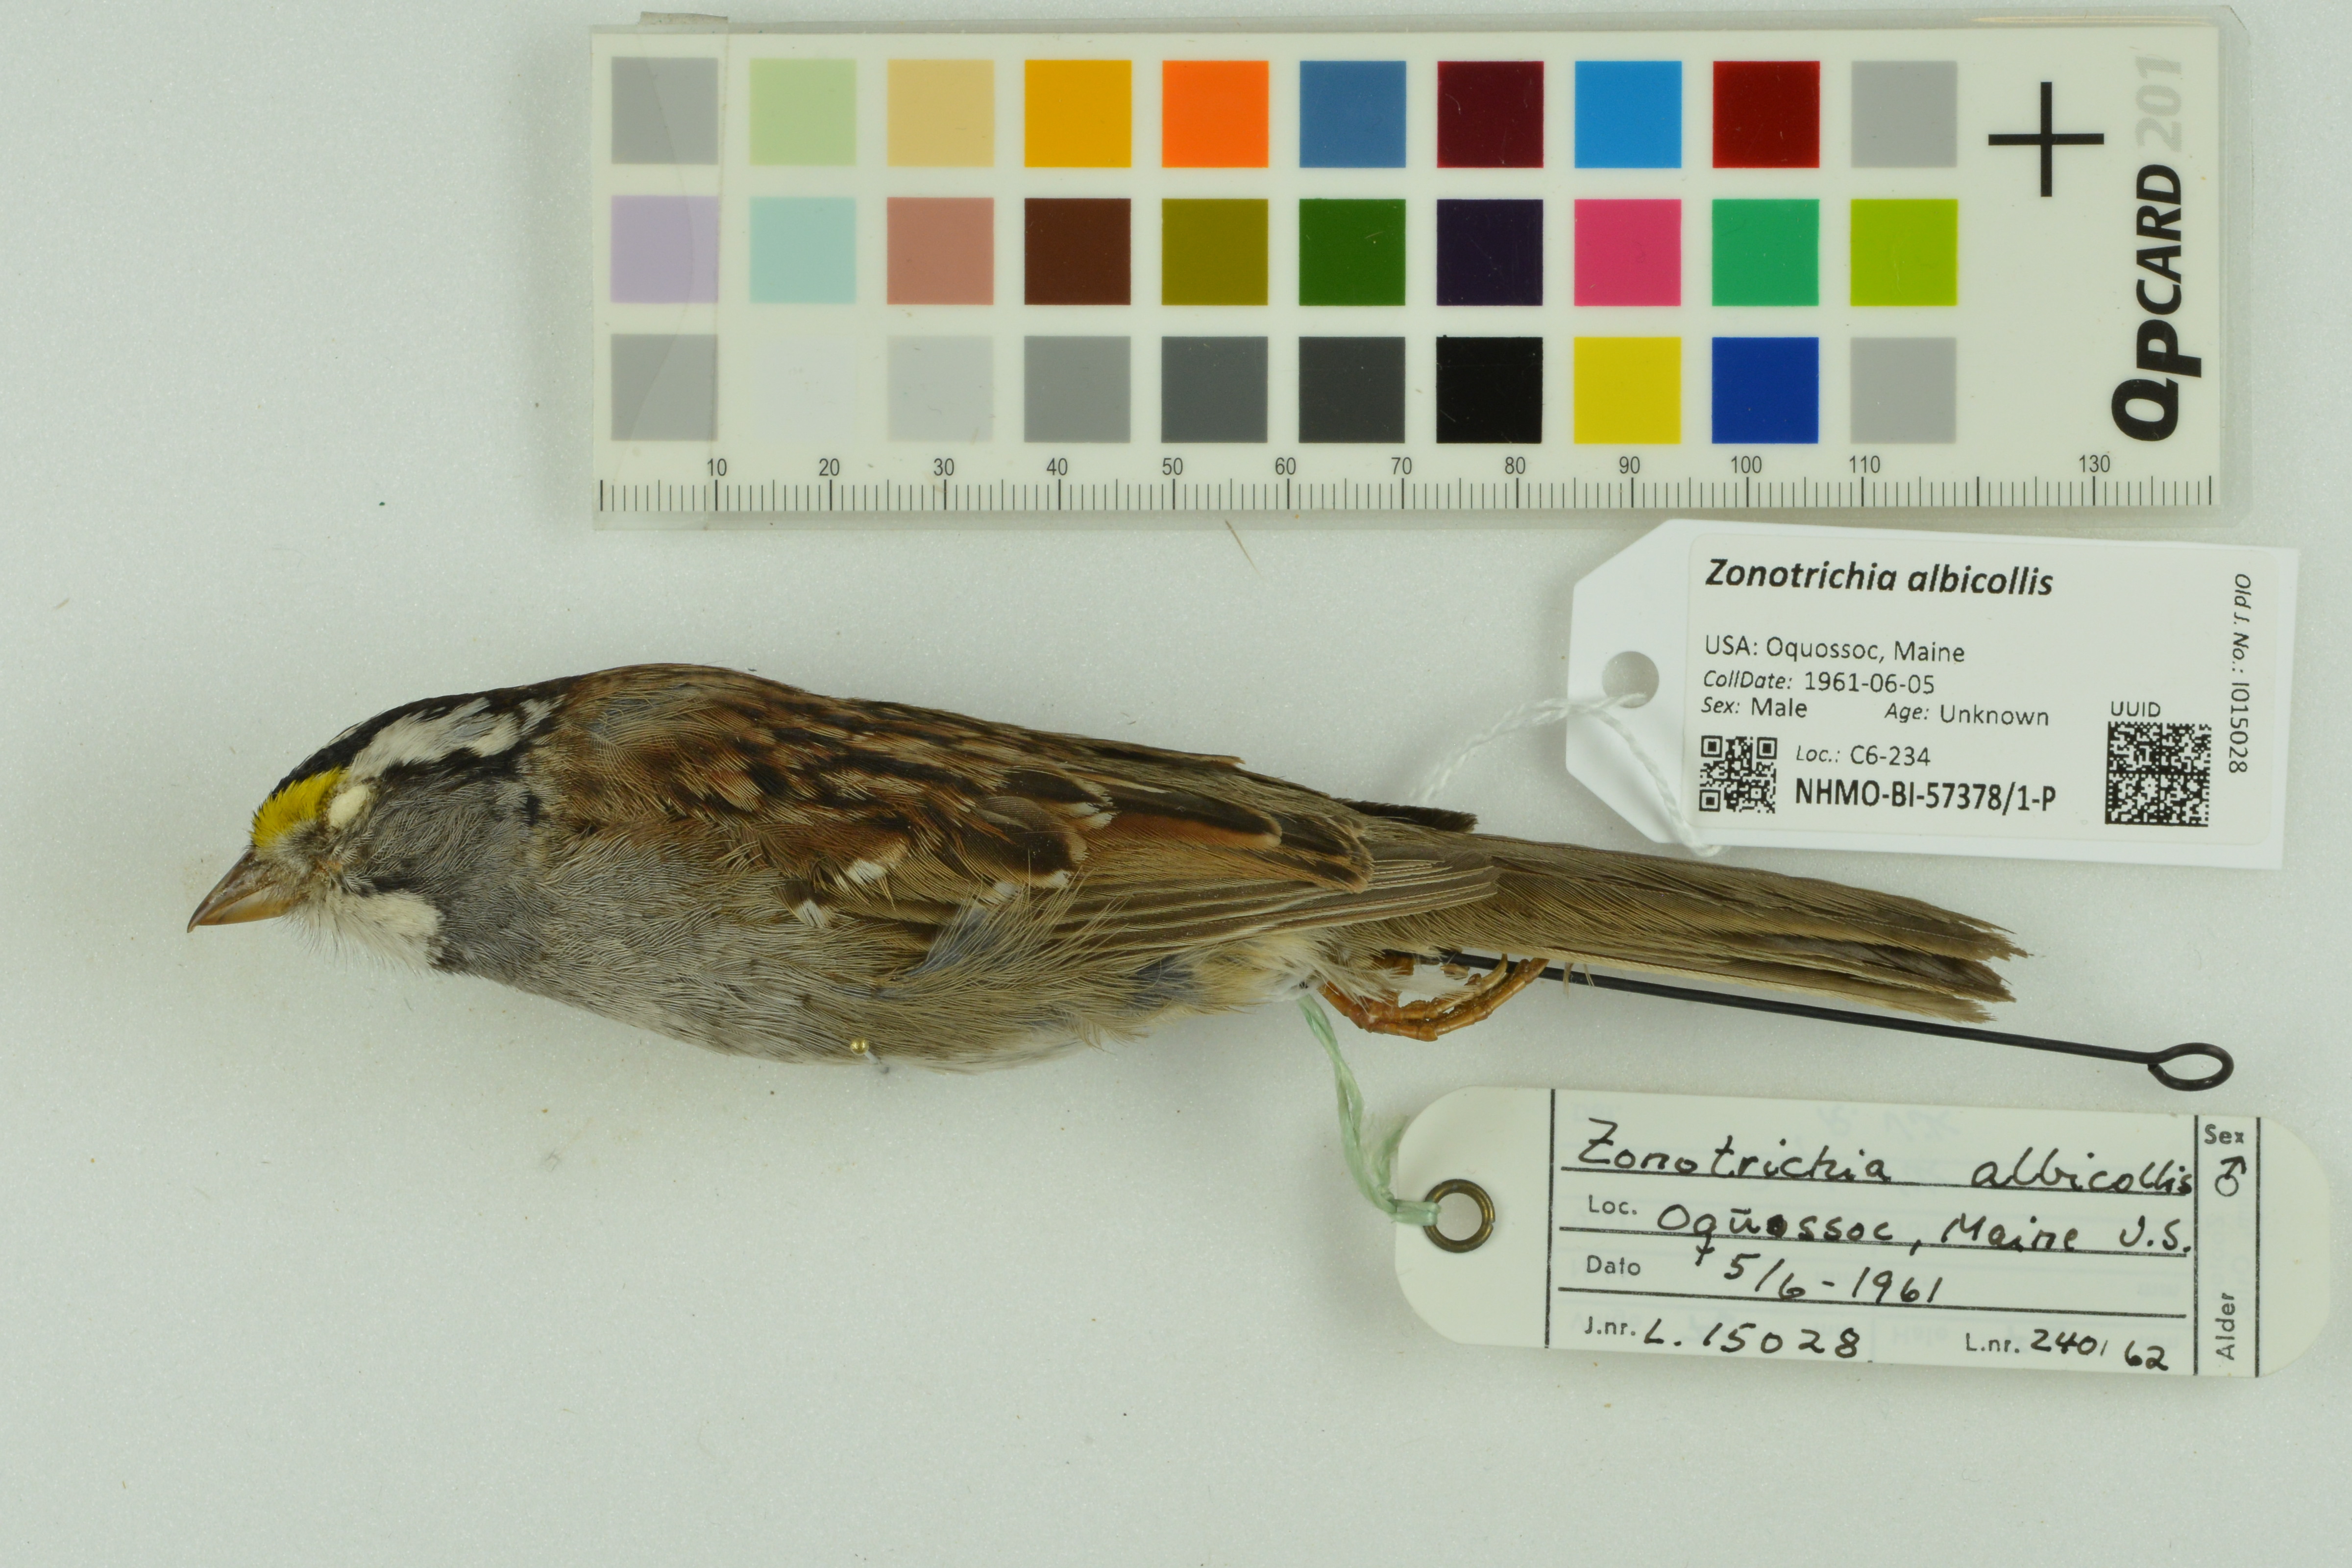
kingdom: Animalia
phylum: Chordata
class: Aves
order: Passeriformes
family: Passerellidae
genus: Zonotrichia
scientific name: Zonotrichia albicollis
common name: White-throated sparrow
